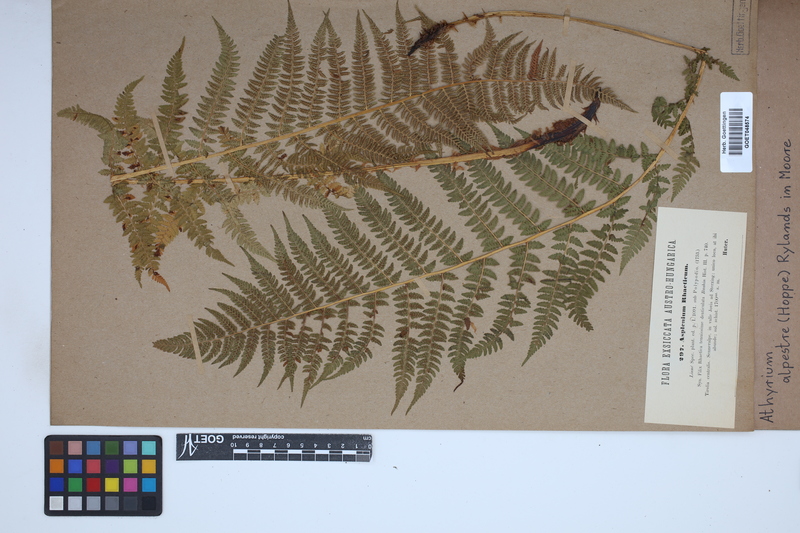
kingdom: Plantae
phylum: Tracheophyta
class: Polypodiopsida
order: Polypodiales
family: Athyriaceae
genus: Pseudathyrium
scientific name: Pseudathyrium alpestre
